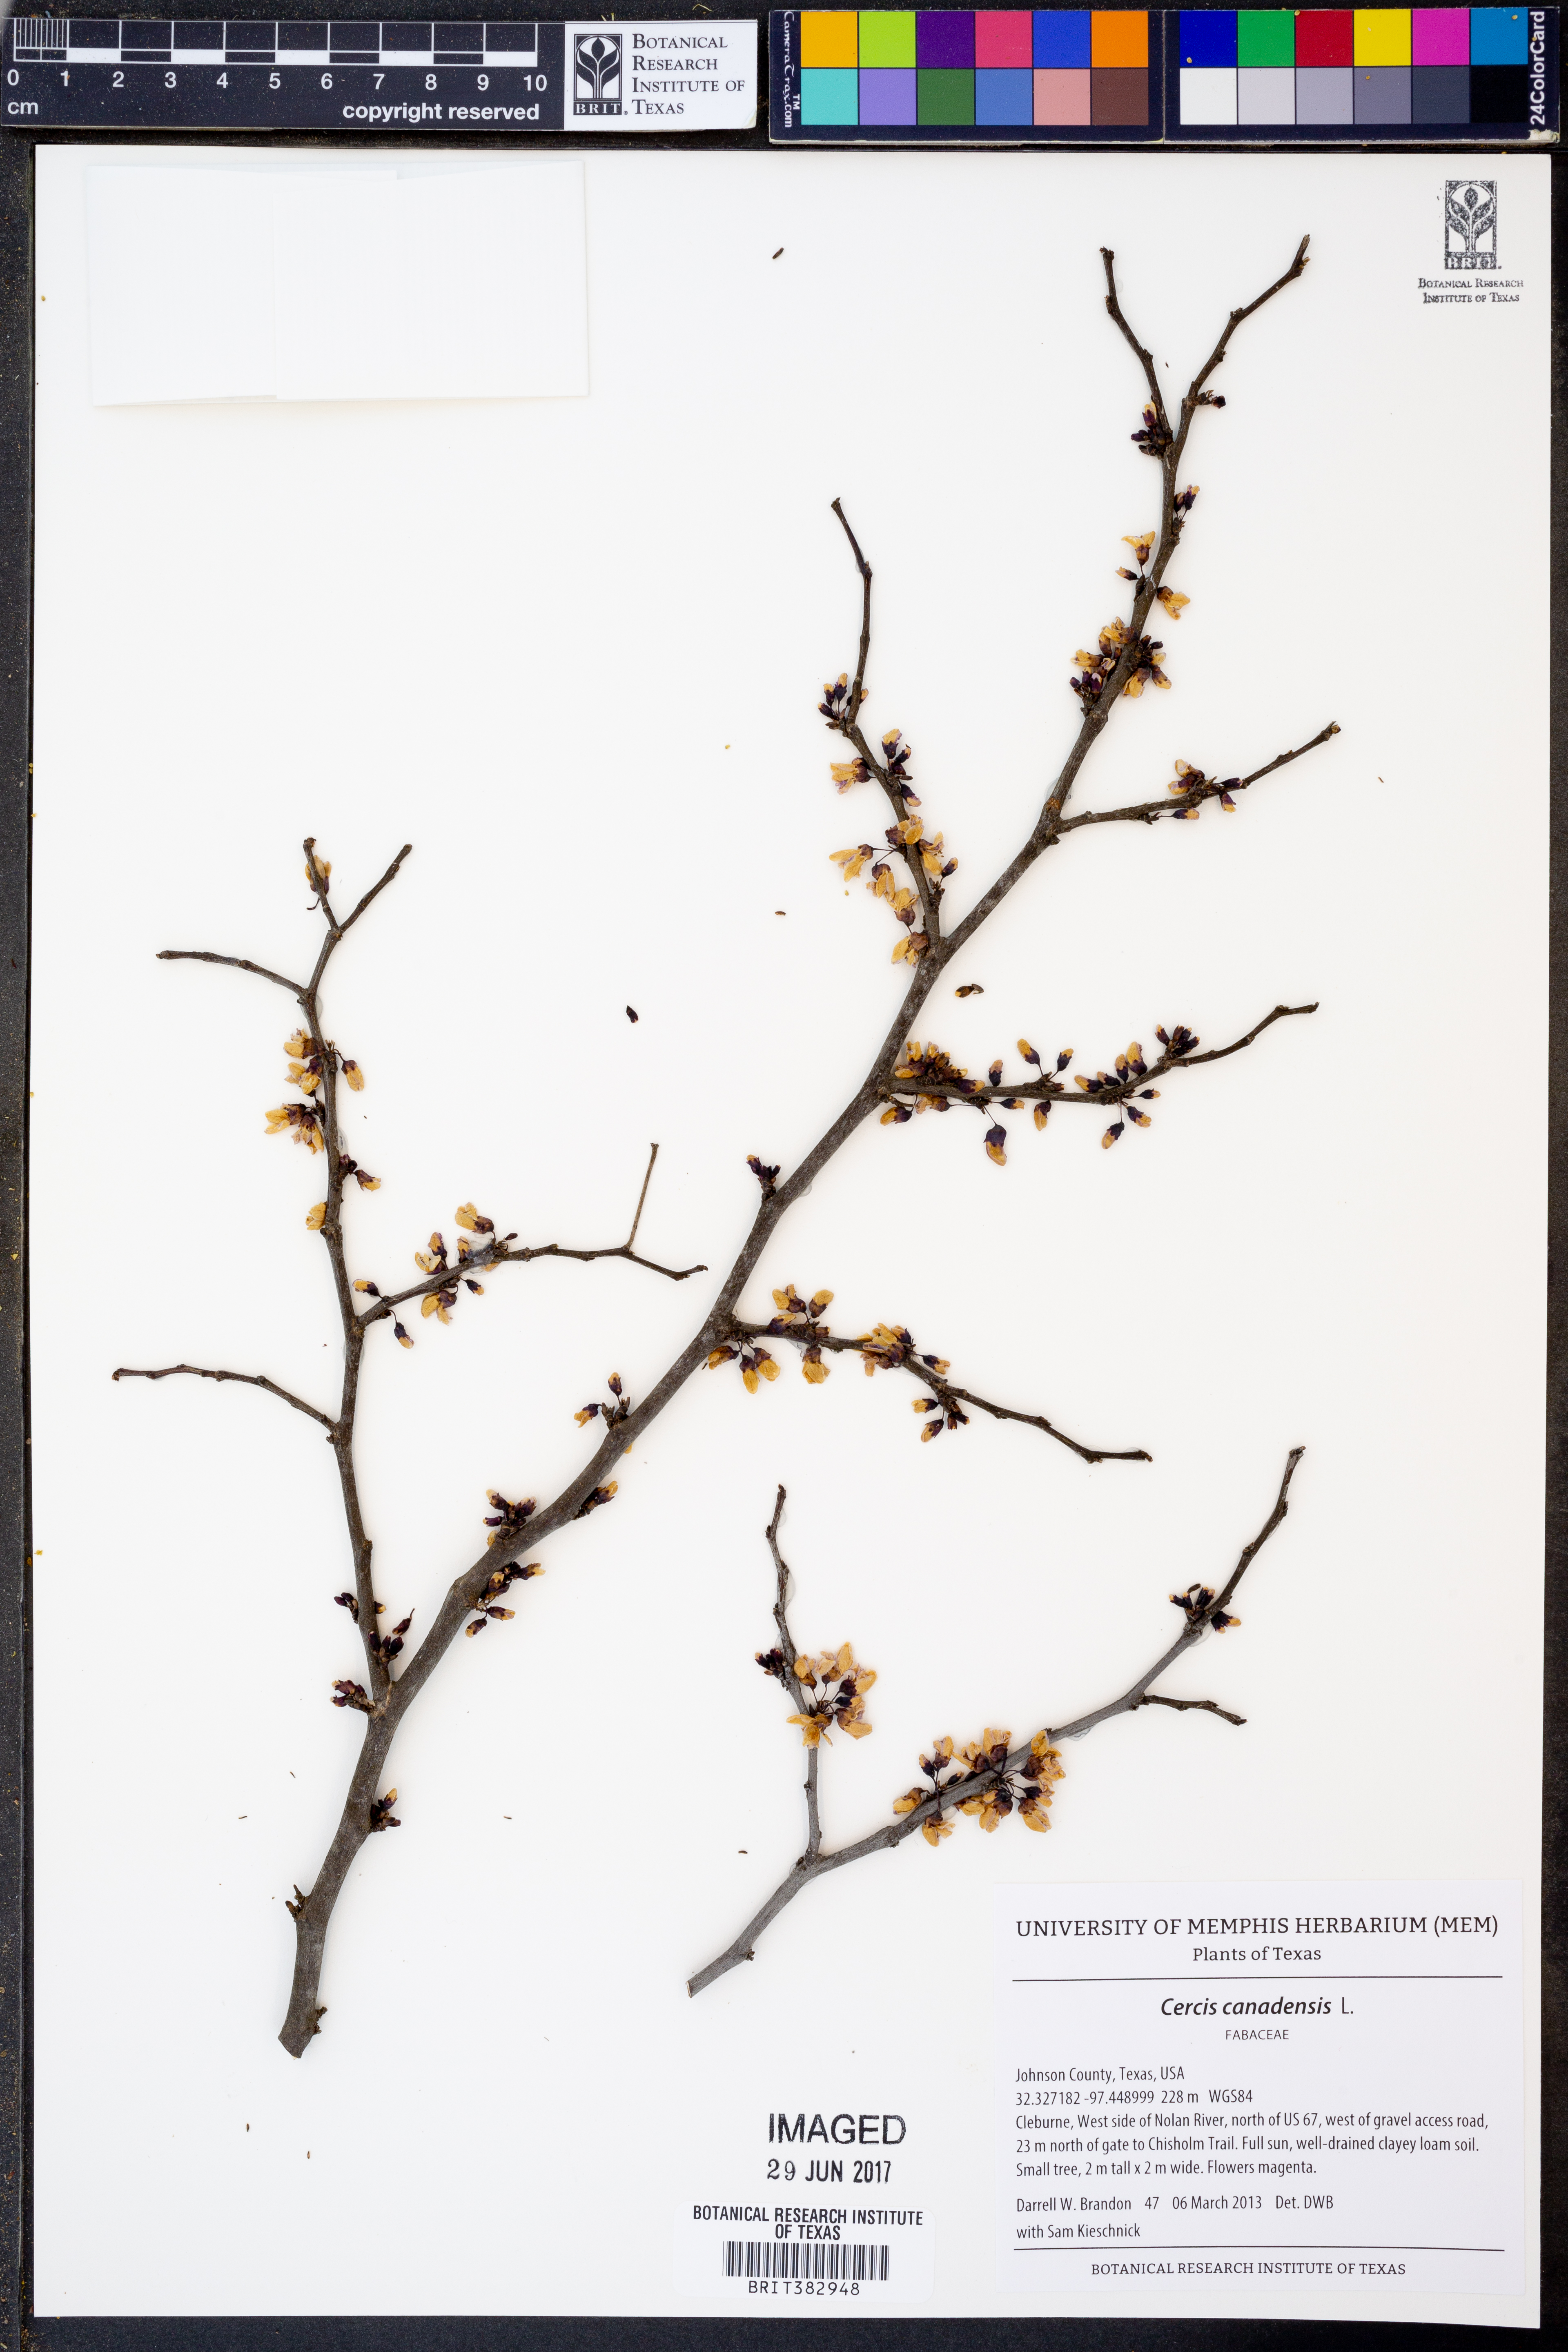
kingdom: Plantae
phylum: Tracheophyta
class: Magnoliopsida
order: Fabales
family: Fabaceae
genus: Cercis
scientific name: Cercis canadensis
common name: Eastern redbud
